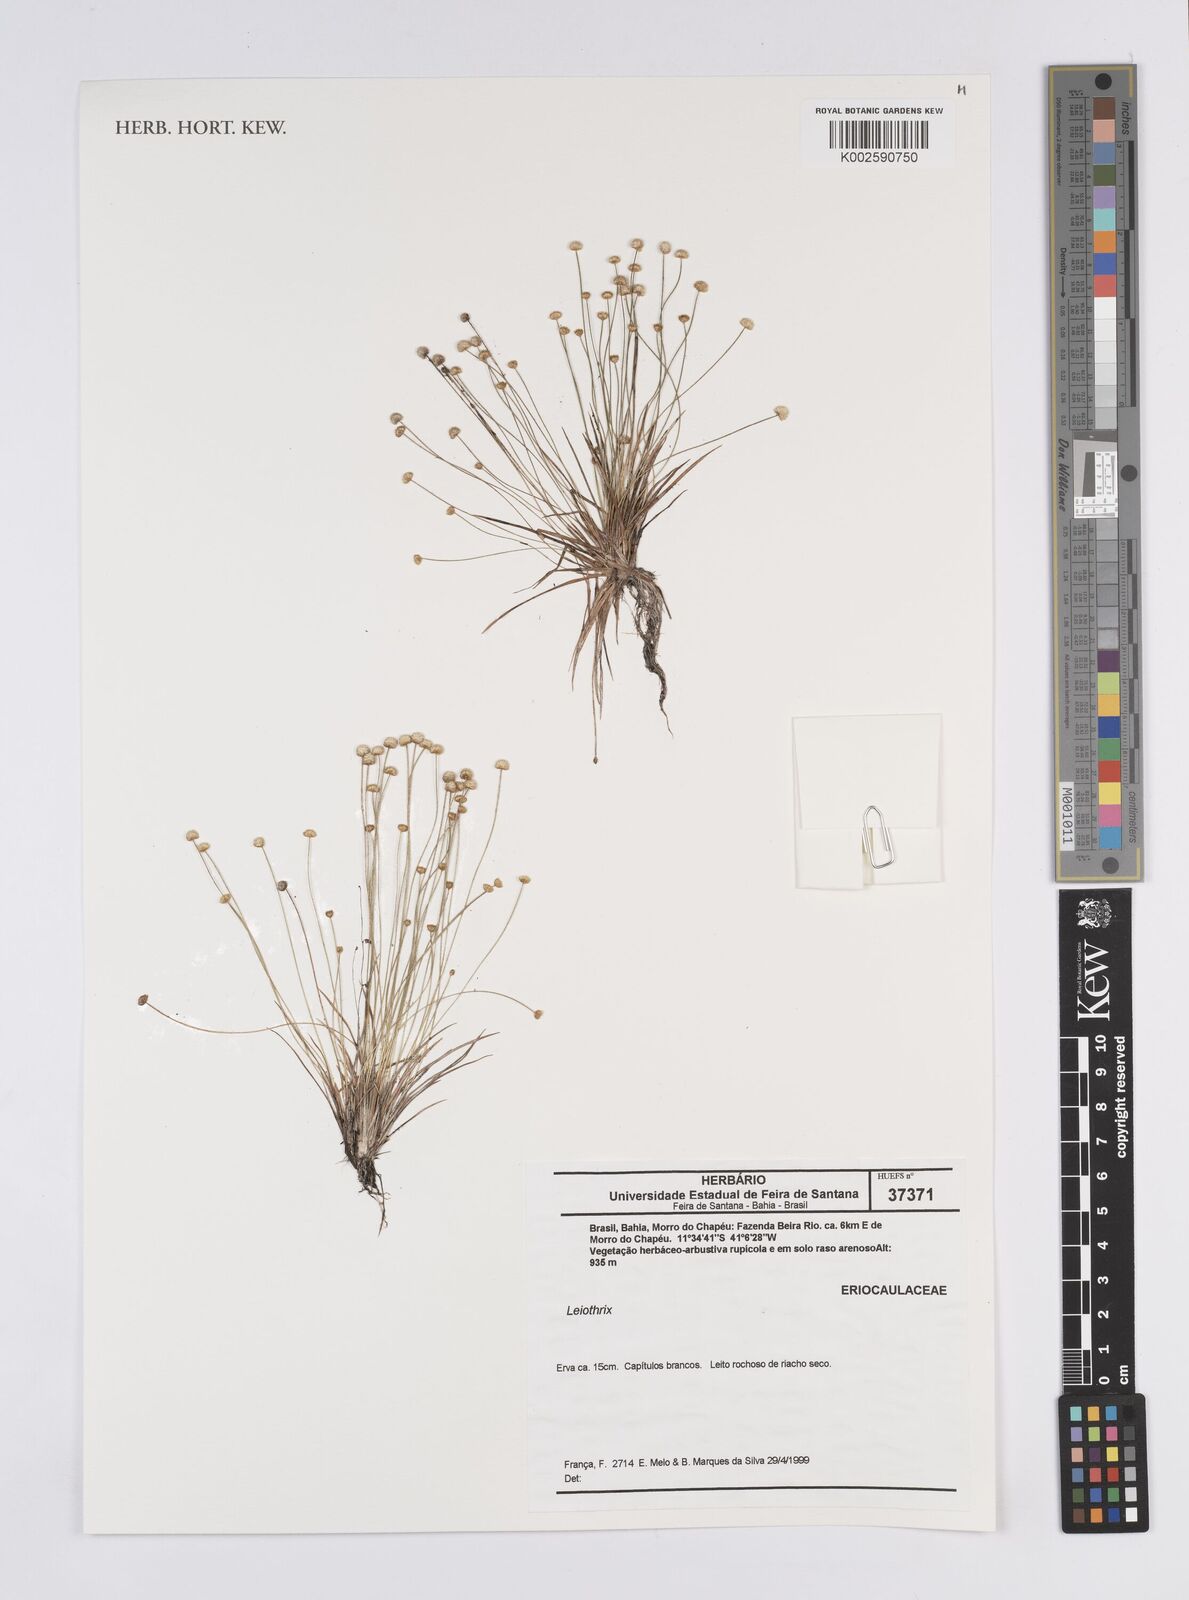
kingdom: Plantae
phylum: Tracheophyta
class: Liliopsida
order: Poales
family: Eriocaulaceae
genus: Leiothrix
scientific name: Leiothrix angustifolia
